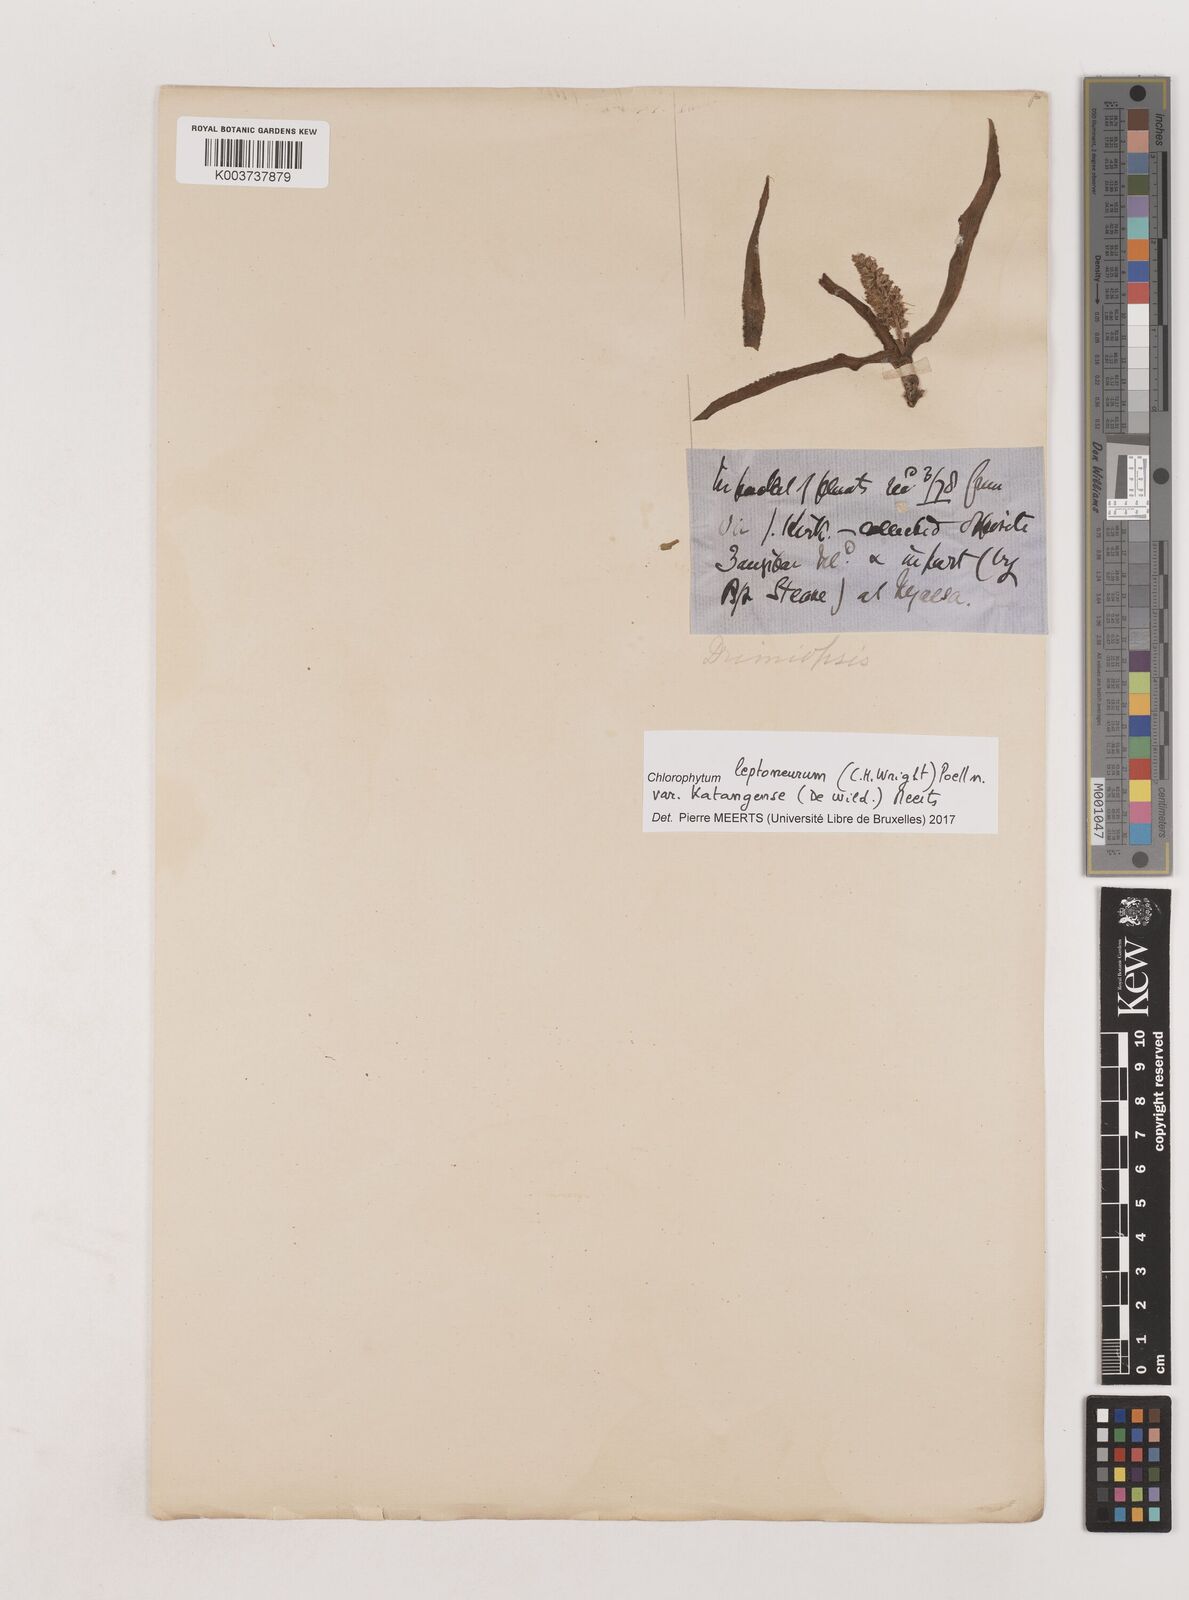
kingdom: Plantae
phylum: Tracheophyta
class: Liliopsida
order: Asparagales
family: Asparagaceae
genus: Chlorophytum
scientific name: Chlorophytum leptoneurum
